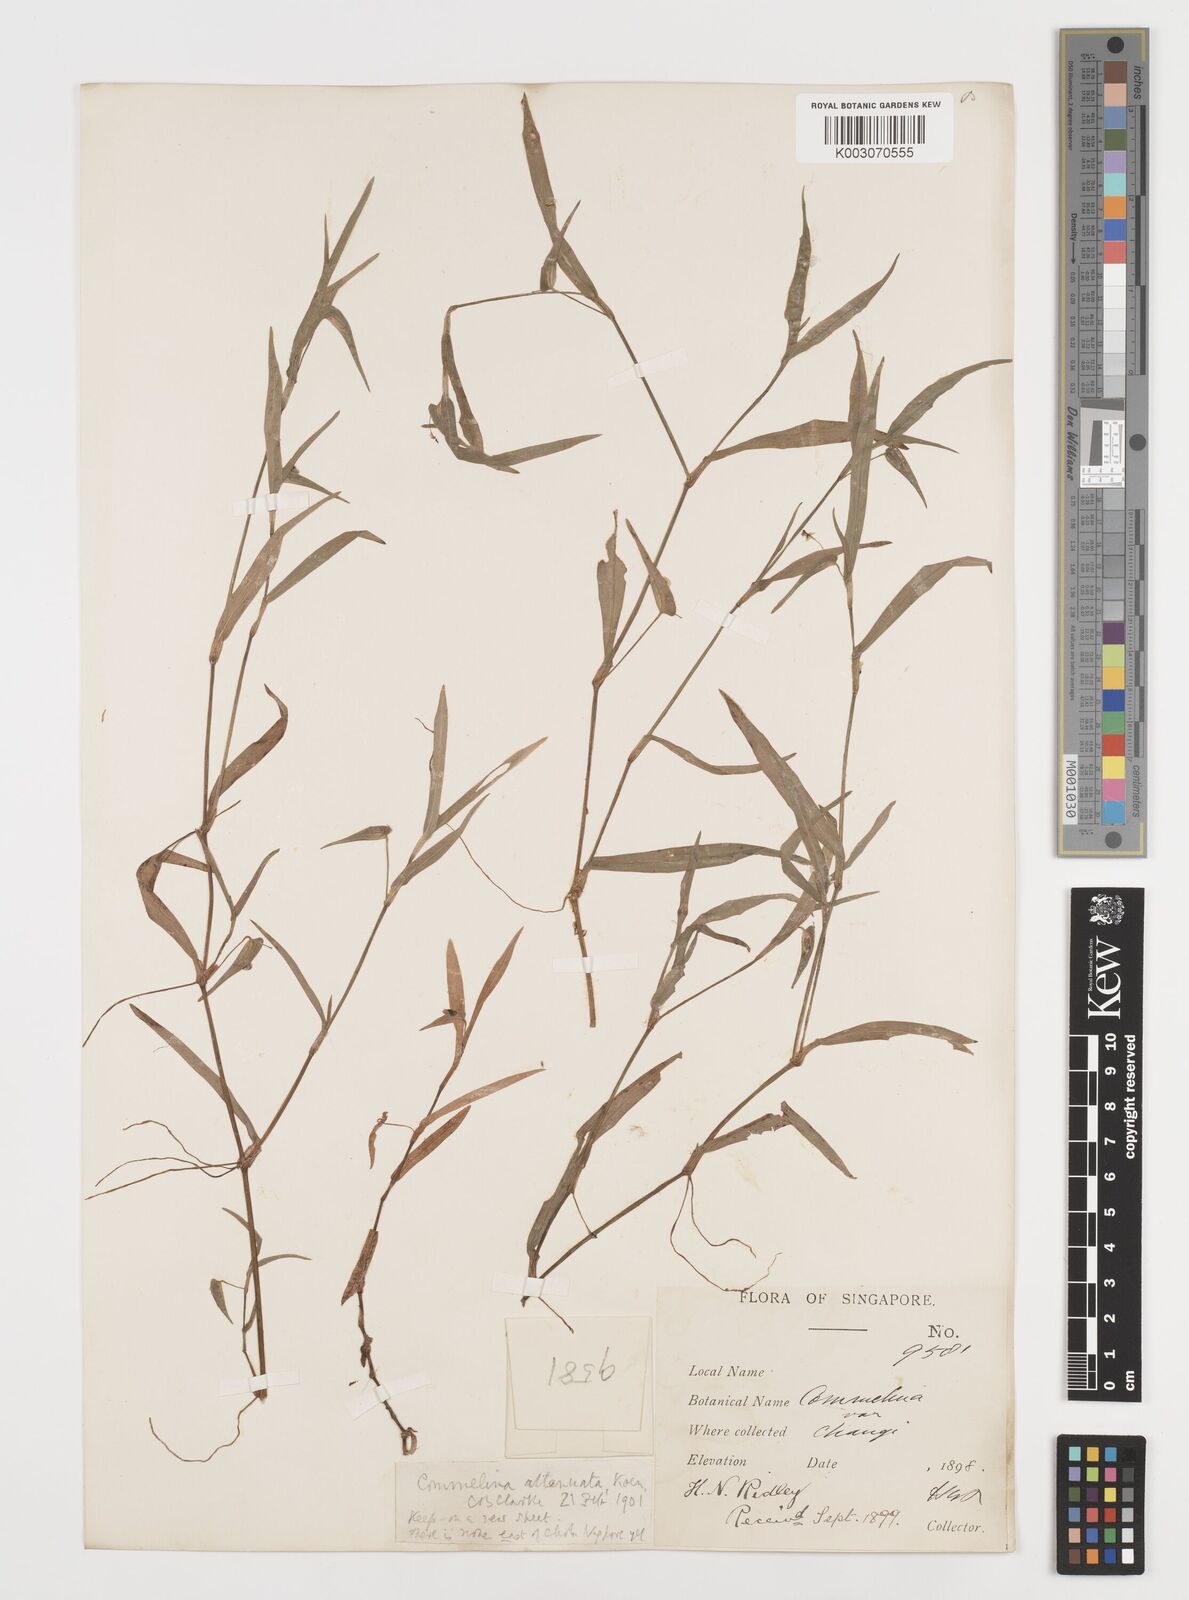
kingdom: Plantae
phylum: Tracheophyta
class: Liliopsida
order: Commelinales
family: Commelinaceae
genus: Commelina
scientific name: Commelina attenuata
